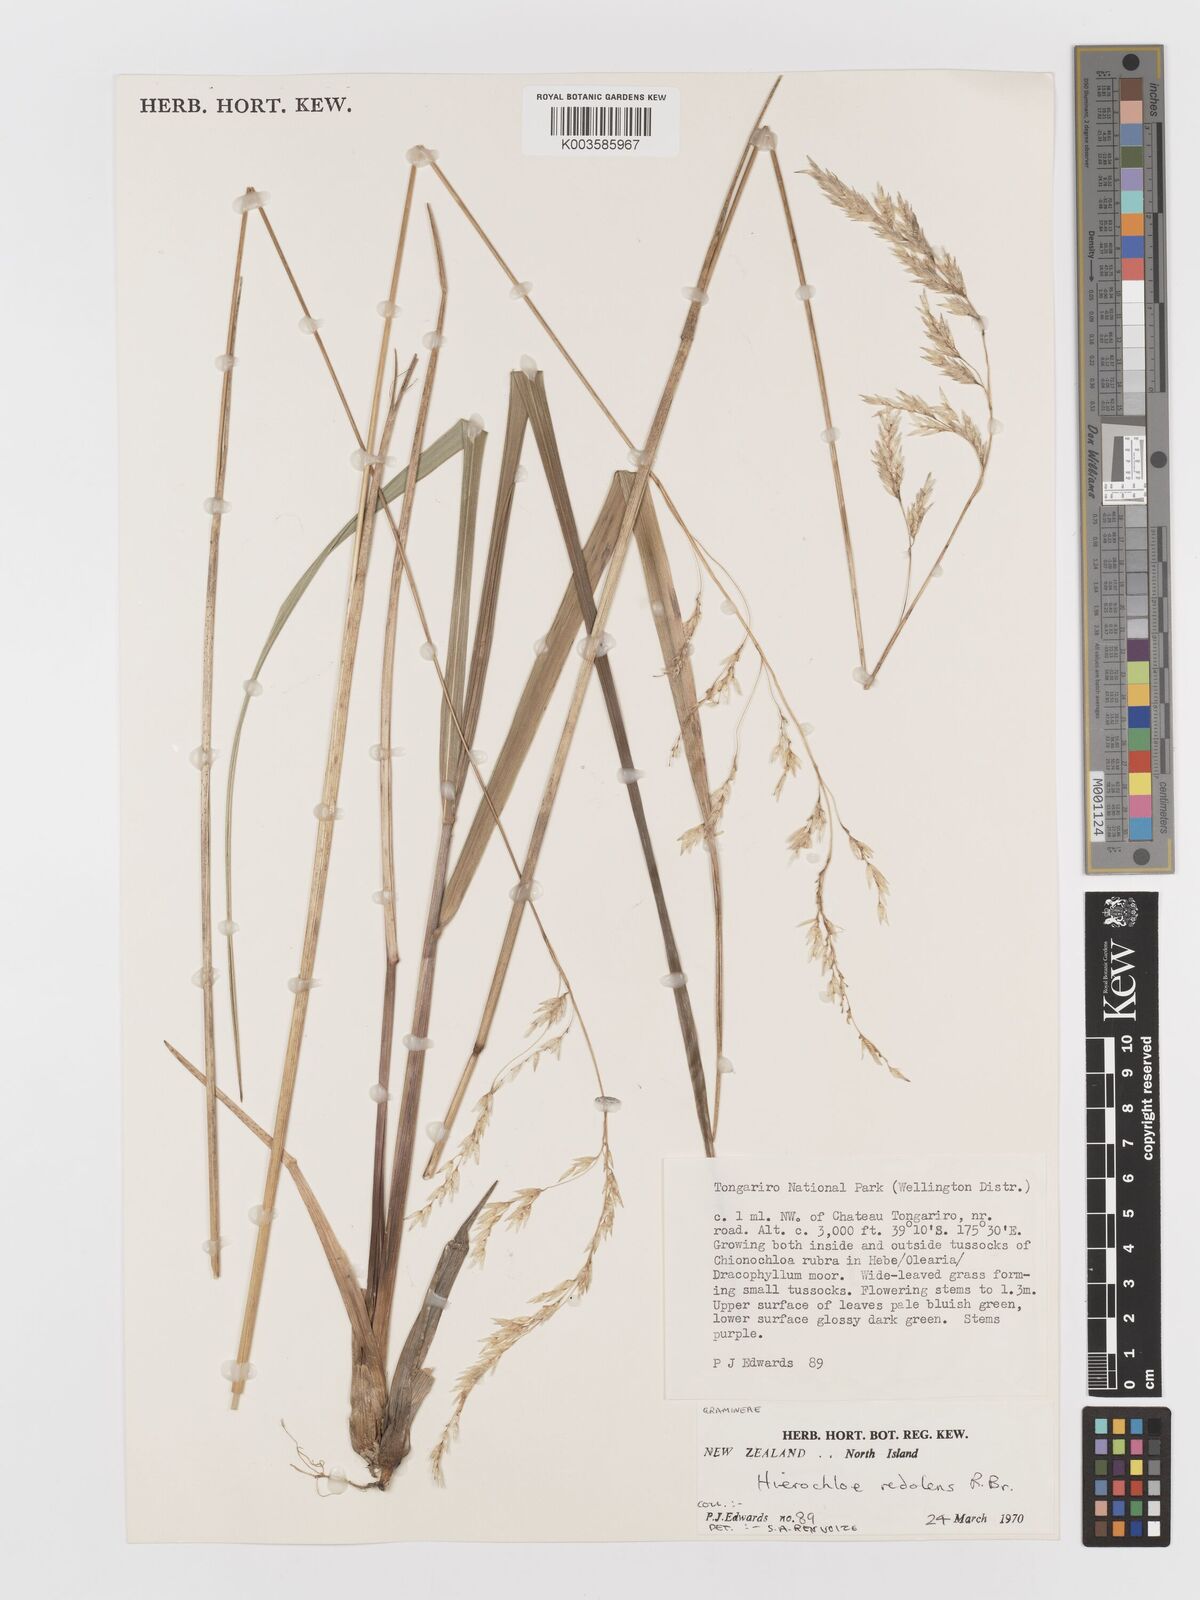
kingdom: Plantae
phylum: Tracheophyta
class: Liliopsida
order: Poales
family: Poaceae
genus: Anthoxanthum
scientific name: Anthoxanthum redolens
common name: Sweet holy grass
